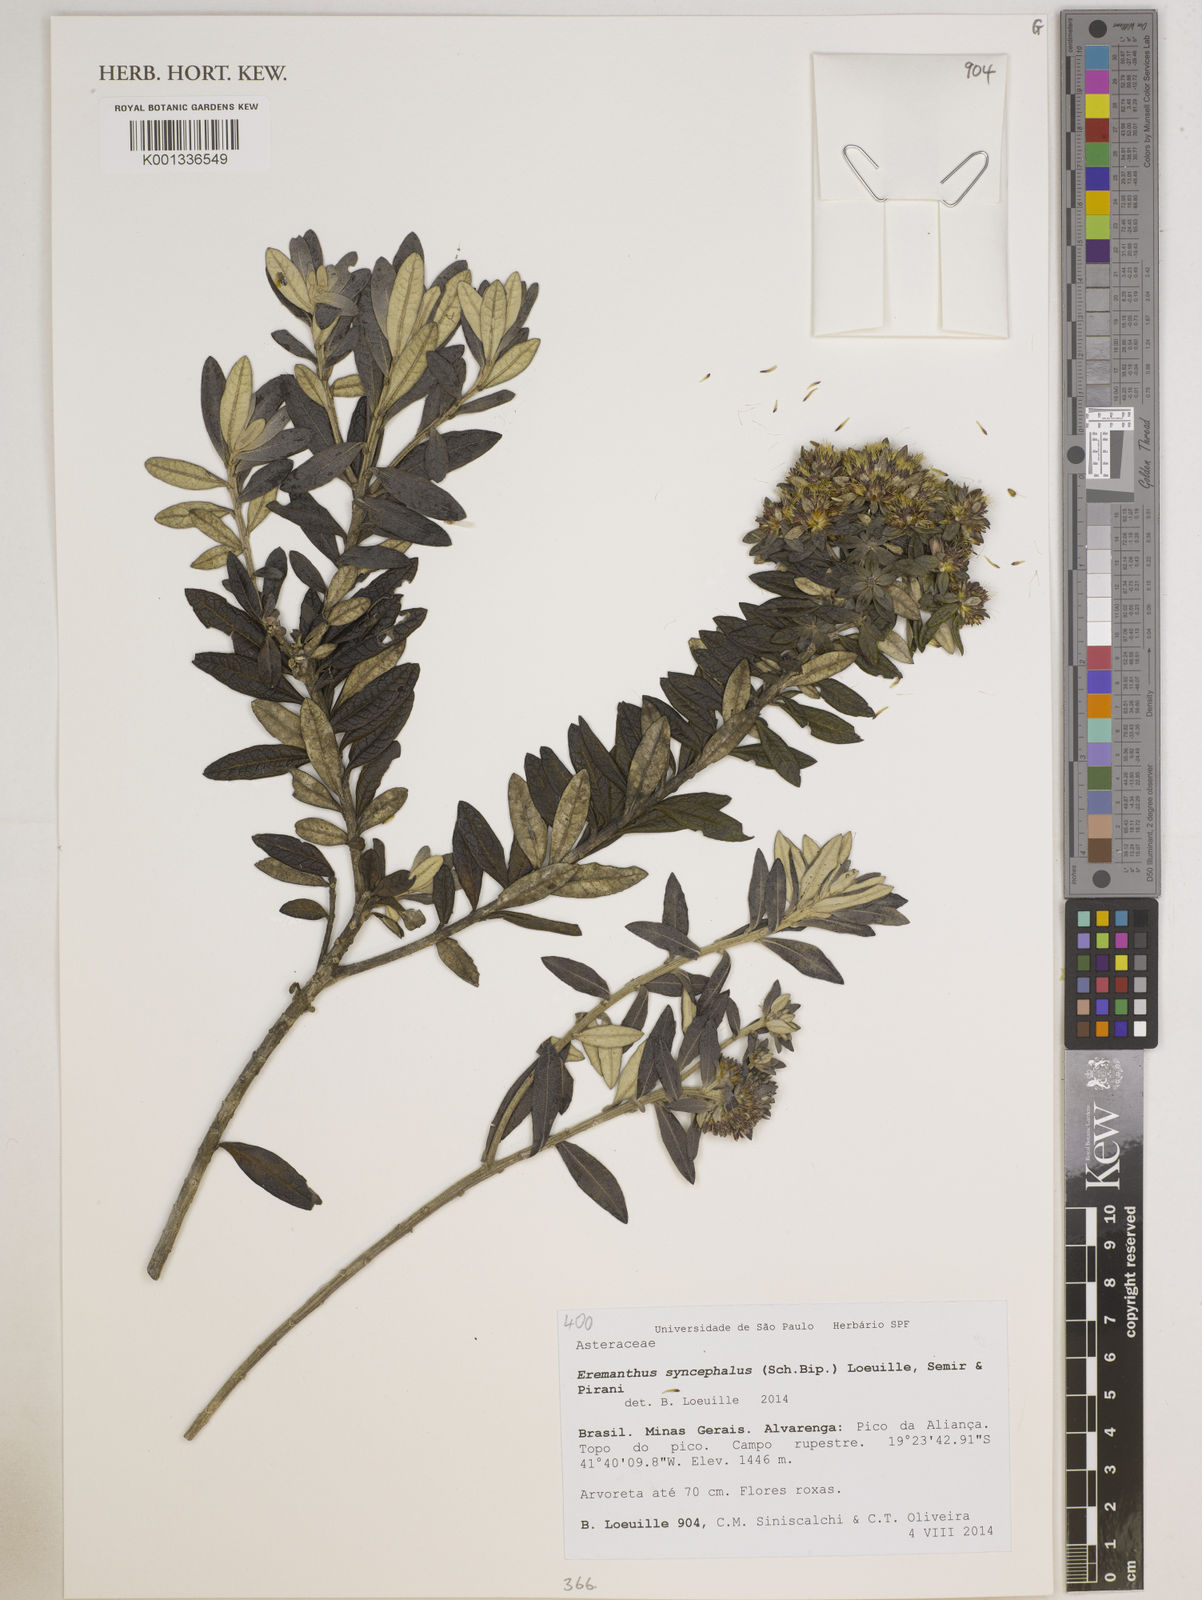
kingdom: Plantae
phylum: Tracheophyta
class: Magnoliopsida
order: Asterales
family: Asteraceae
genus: Eremanthus
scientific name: Eremanthus syncephalus
